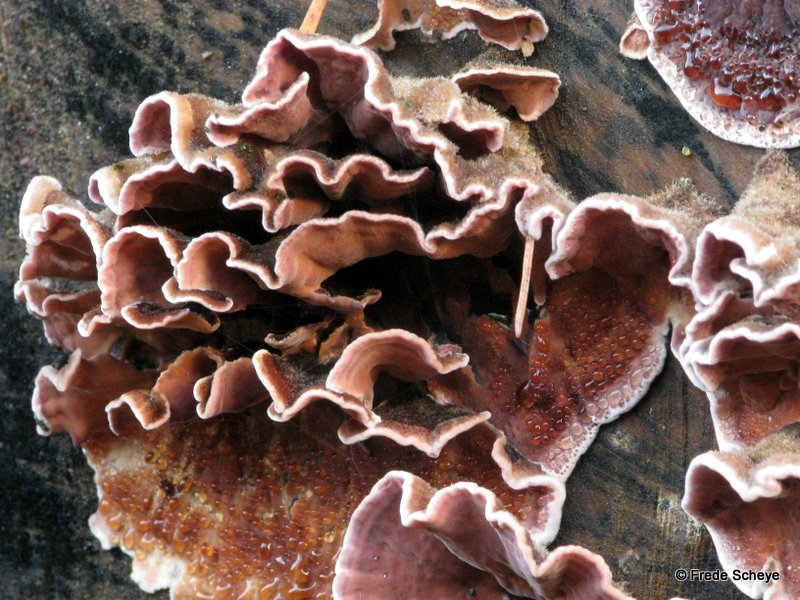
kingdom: Fungi
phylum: Basidiomycota
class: Agaricomycetes
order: Agaricales
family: Cyphellaceae
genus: Chondrostereum
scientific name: Chondrostereum purpureum
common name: purpurlædersvamp
